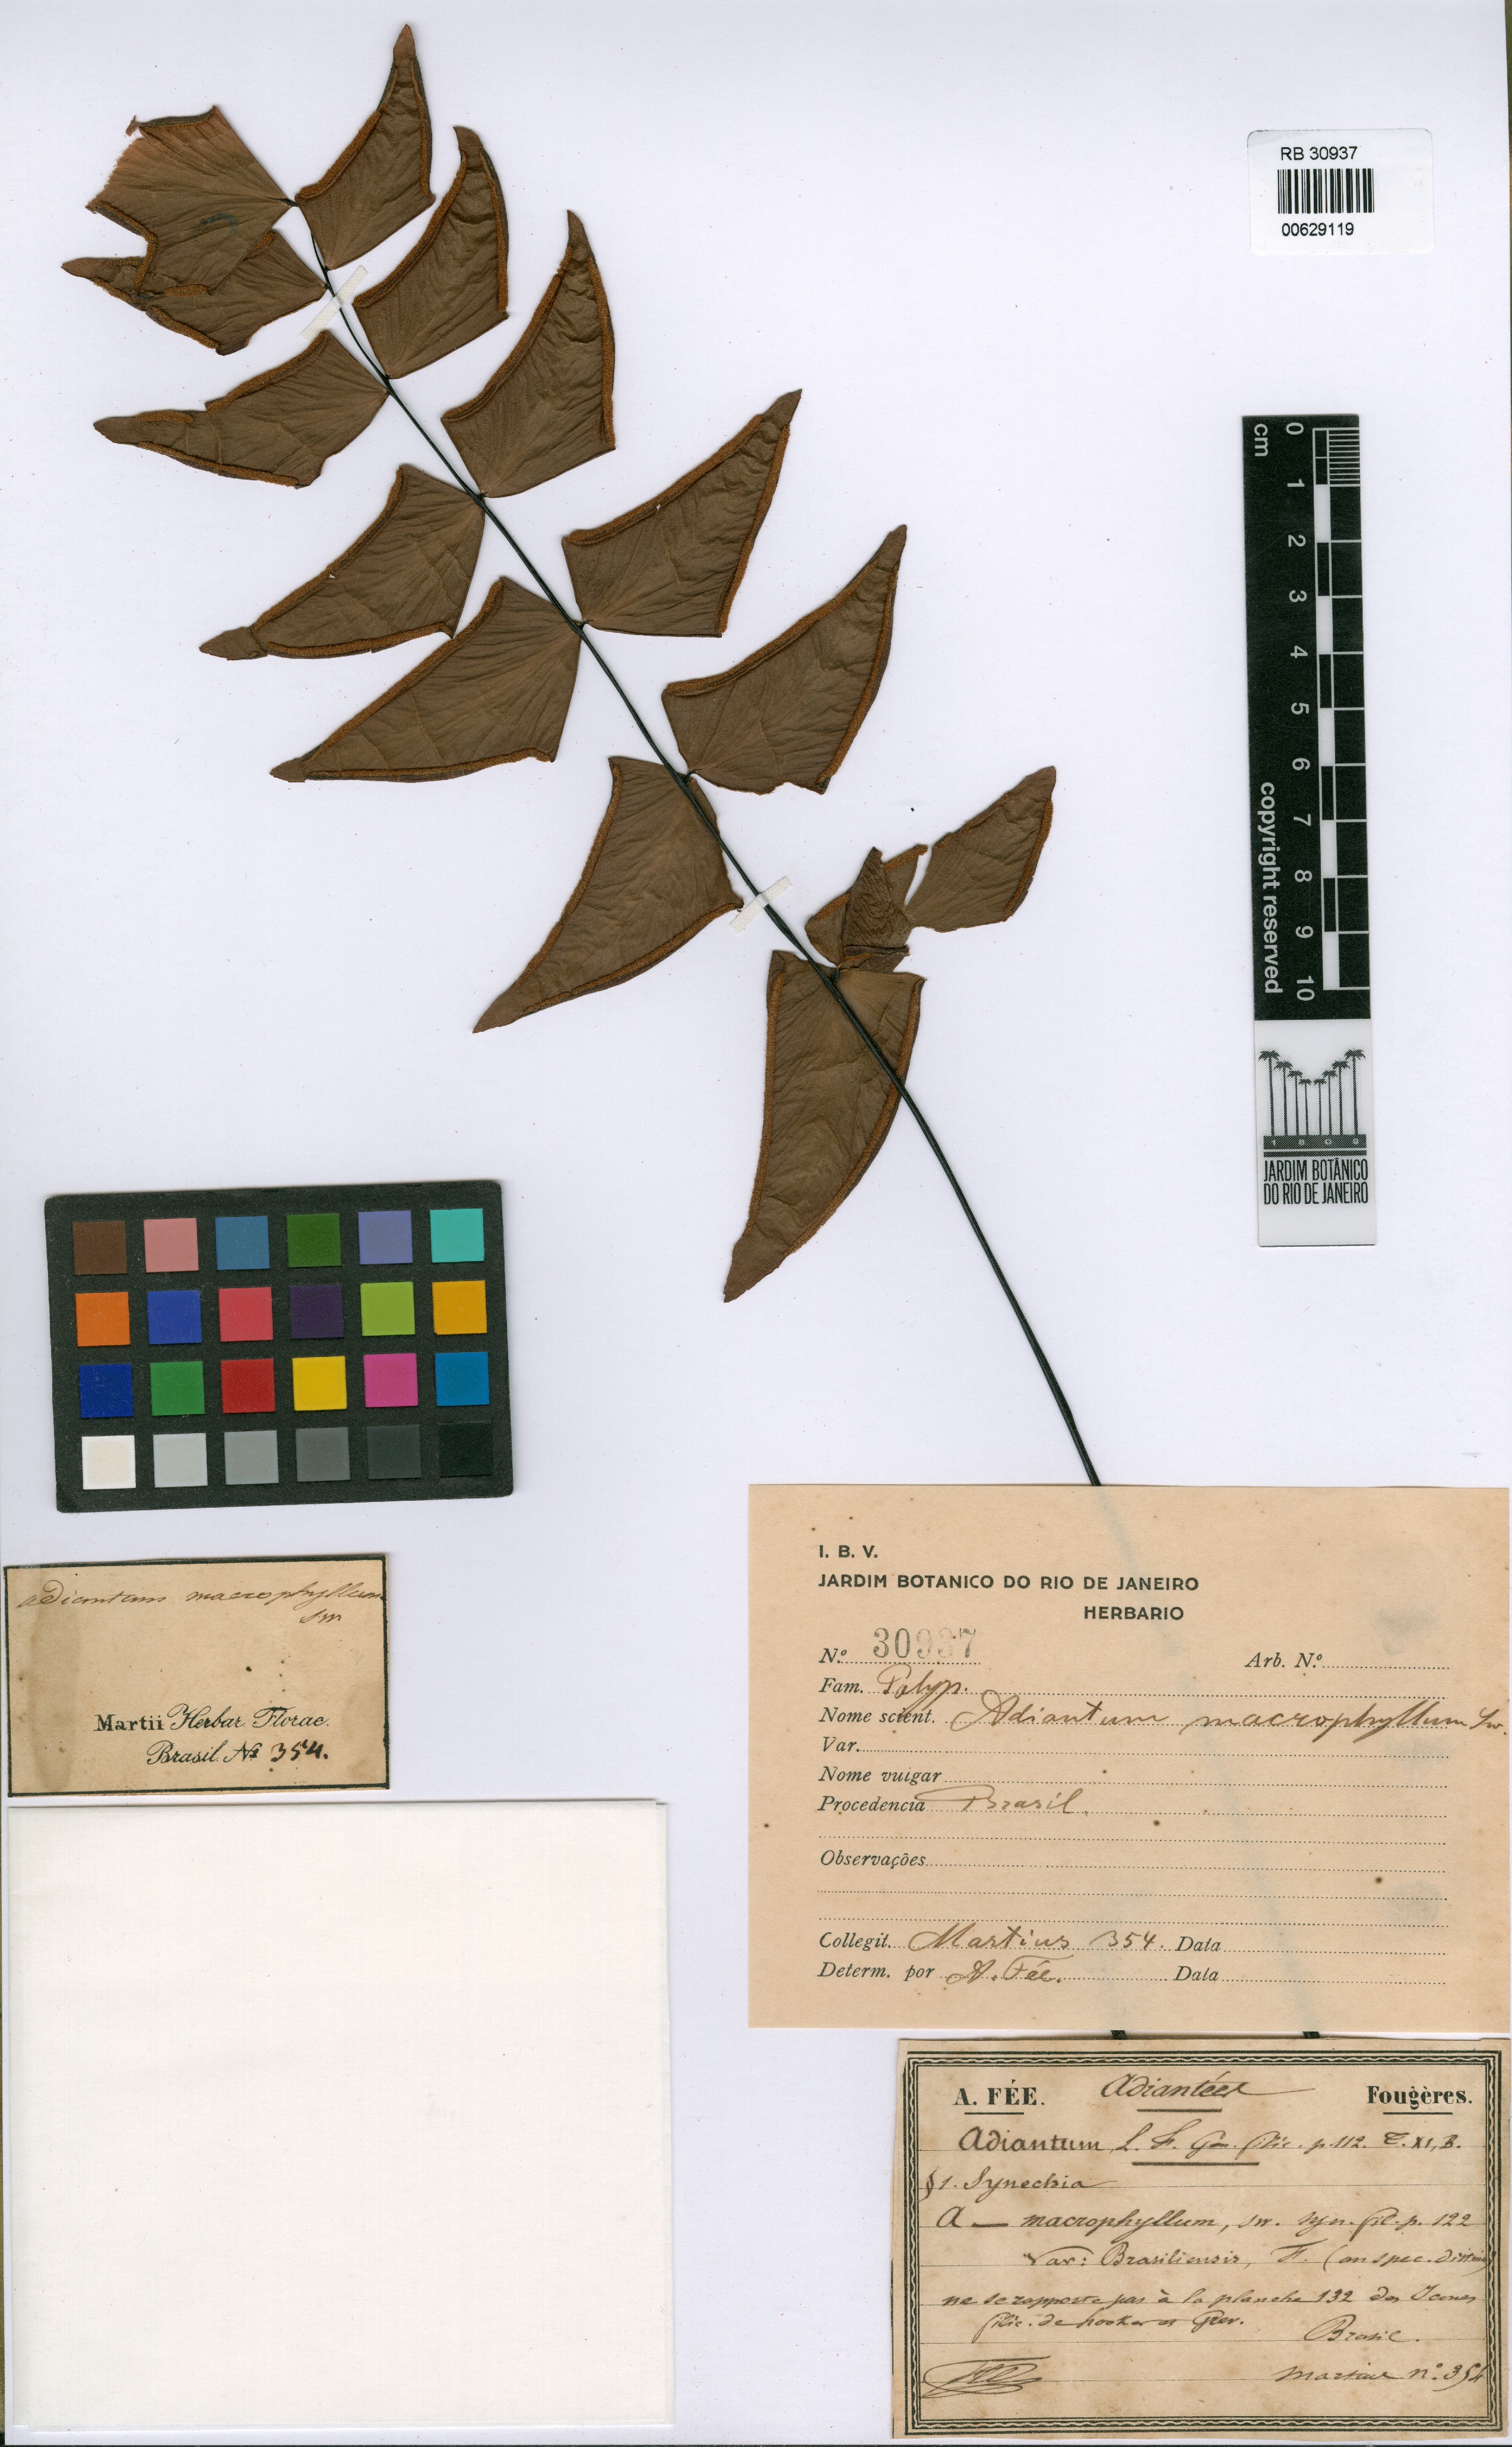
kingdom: Plantae
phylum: Tracheophyta
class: Polypodiopsida
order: Polypodiales
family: Pteridaceae
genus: Adiantum
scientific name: Adiantum macrophyllum
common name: Largeleaf maidenhair
